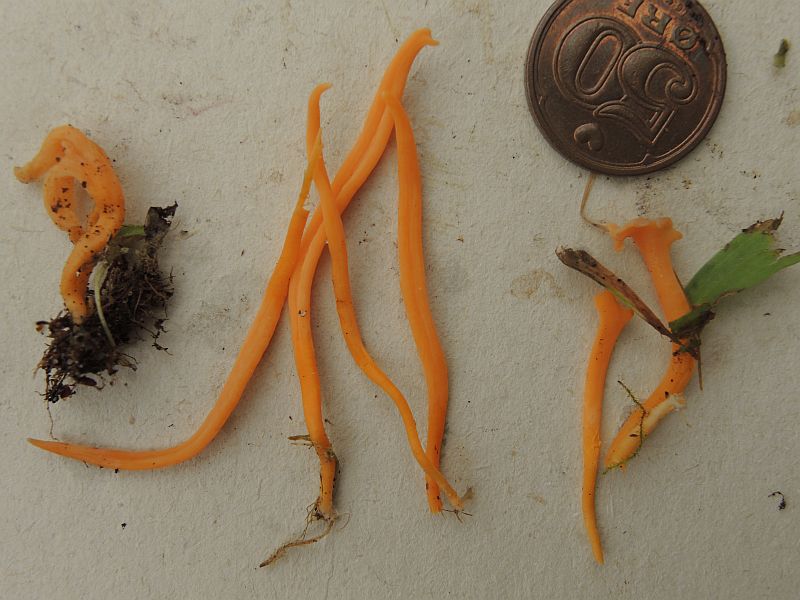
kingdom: Fungi
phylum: Basidiomycota
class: Agaricomycetes
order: Agaricales
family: Clavariaceae
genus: Clavulinopsis
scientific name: Clavulinopsis luteoalba
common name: abrikos-køllesvamp
